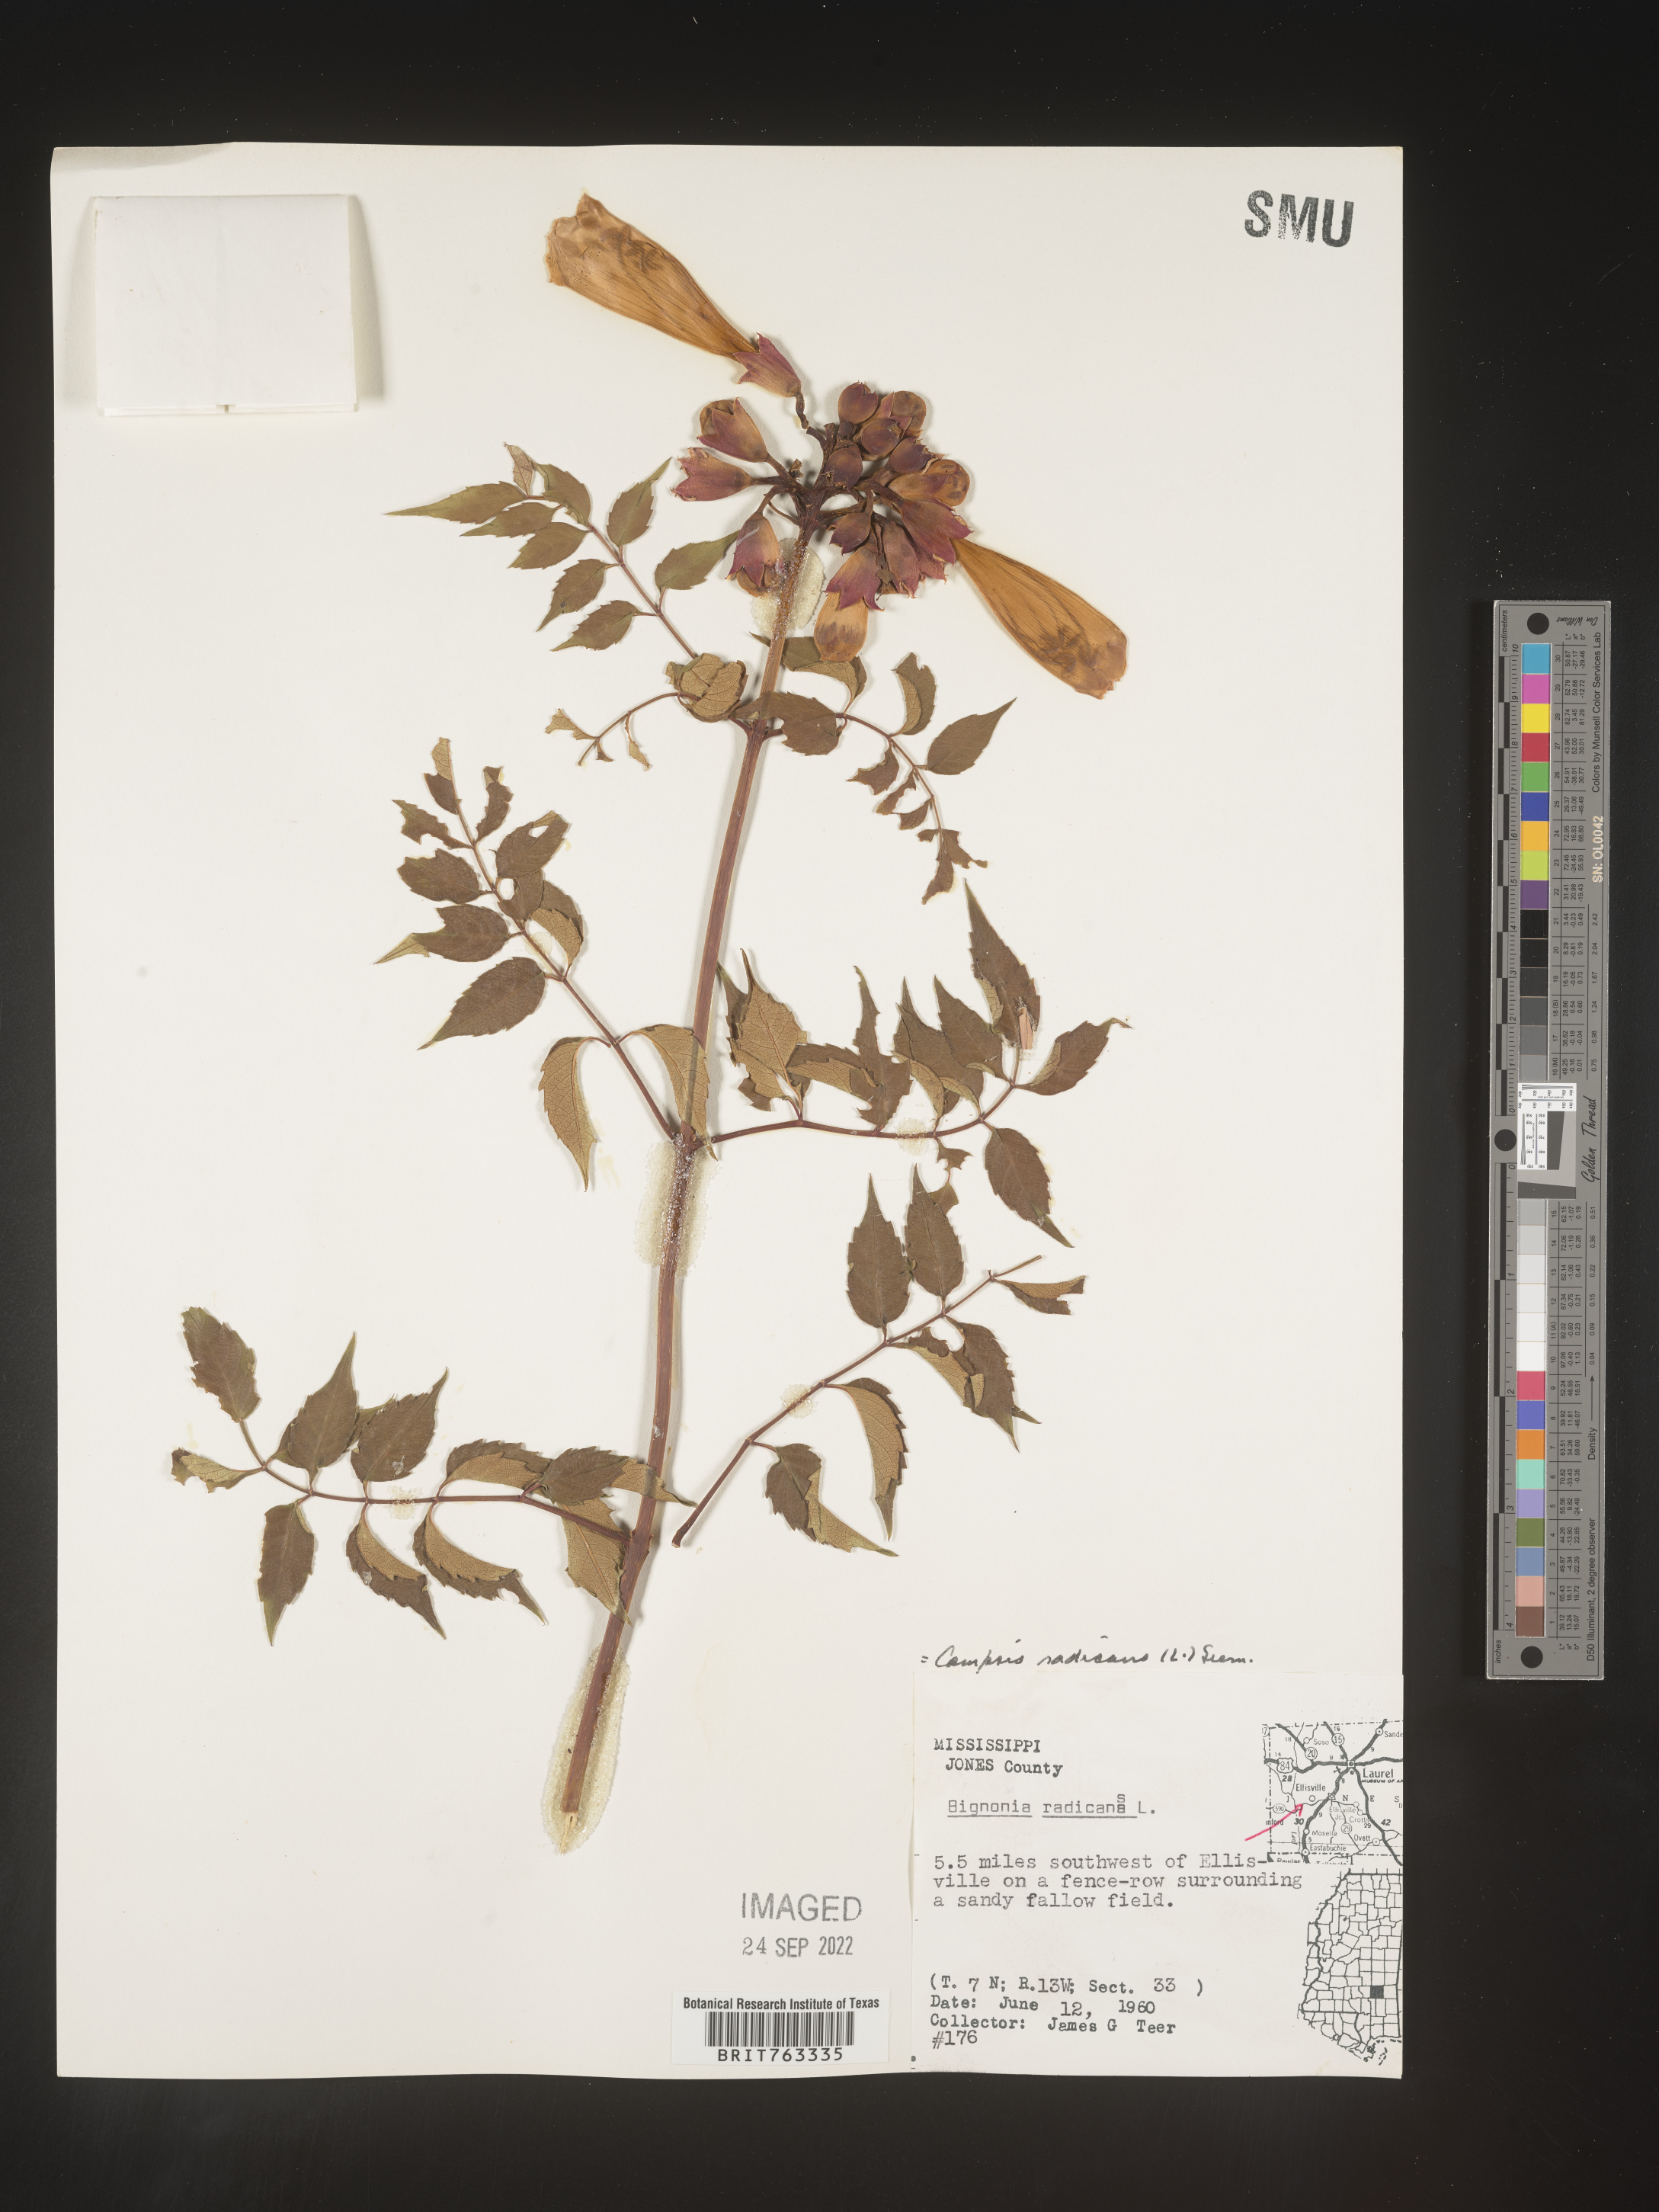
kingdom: Plantae
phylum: Tracheophyta
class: Magnoliopsida
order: Lamiales
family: Bignoniaceae
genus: Campsis
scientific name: Campsis radicans
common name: Trumpet-creeper
